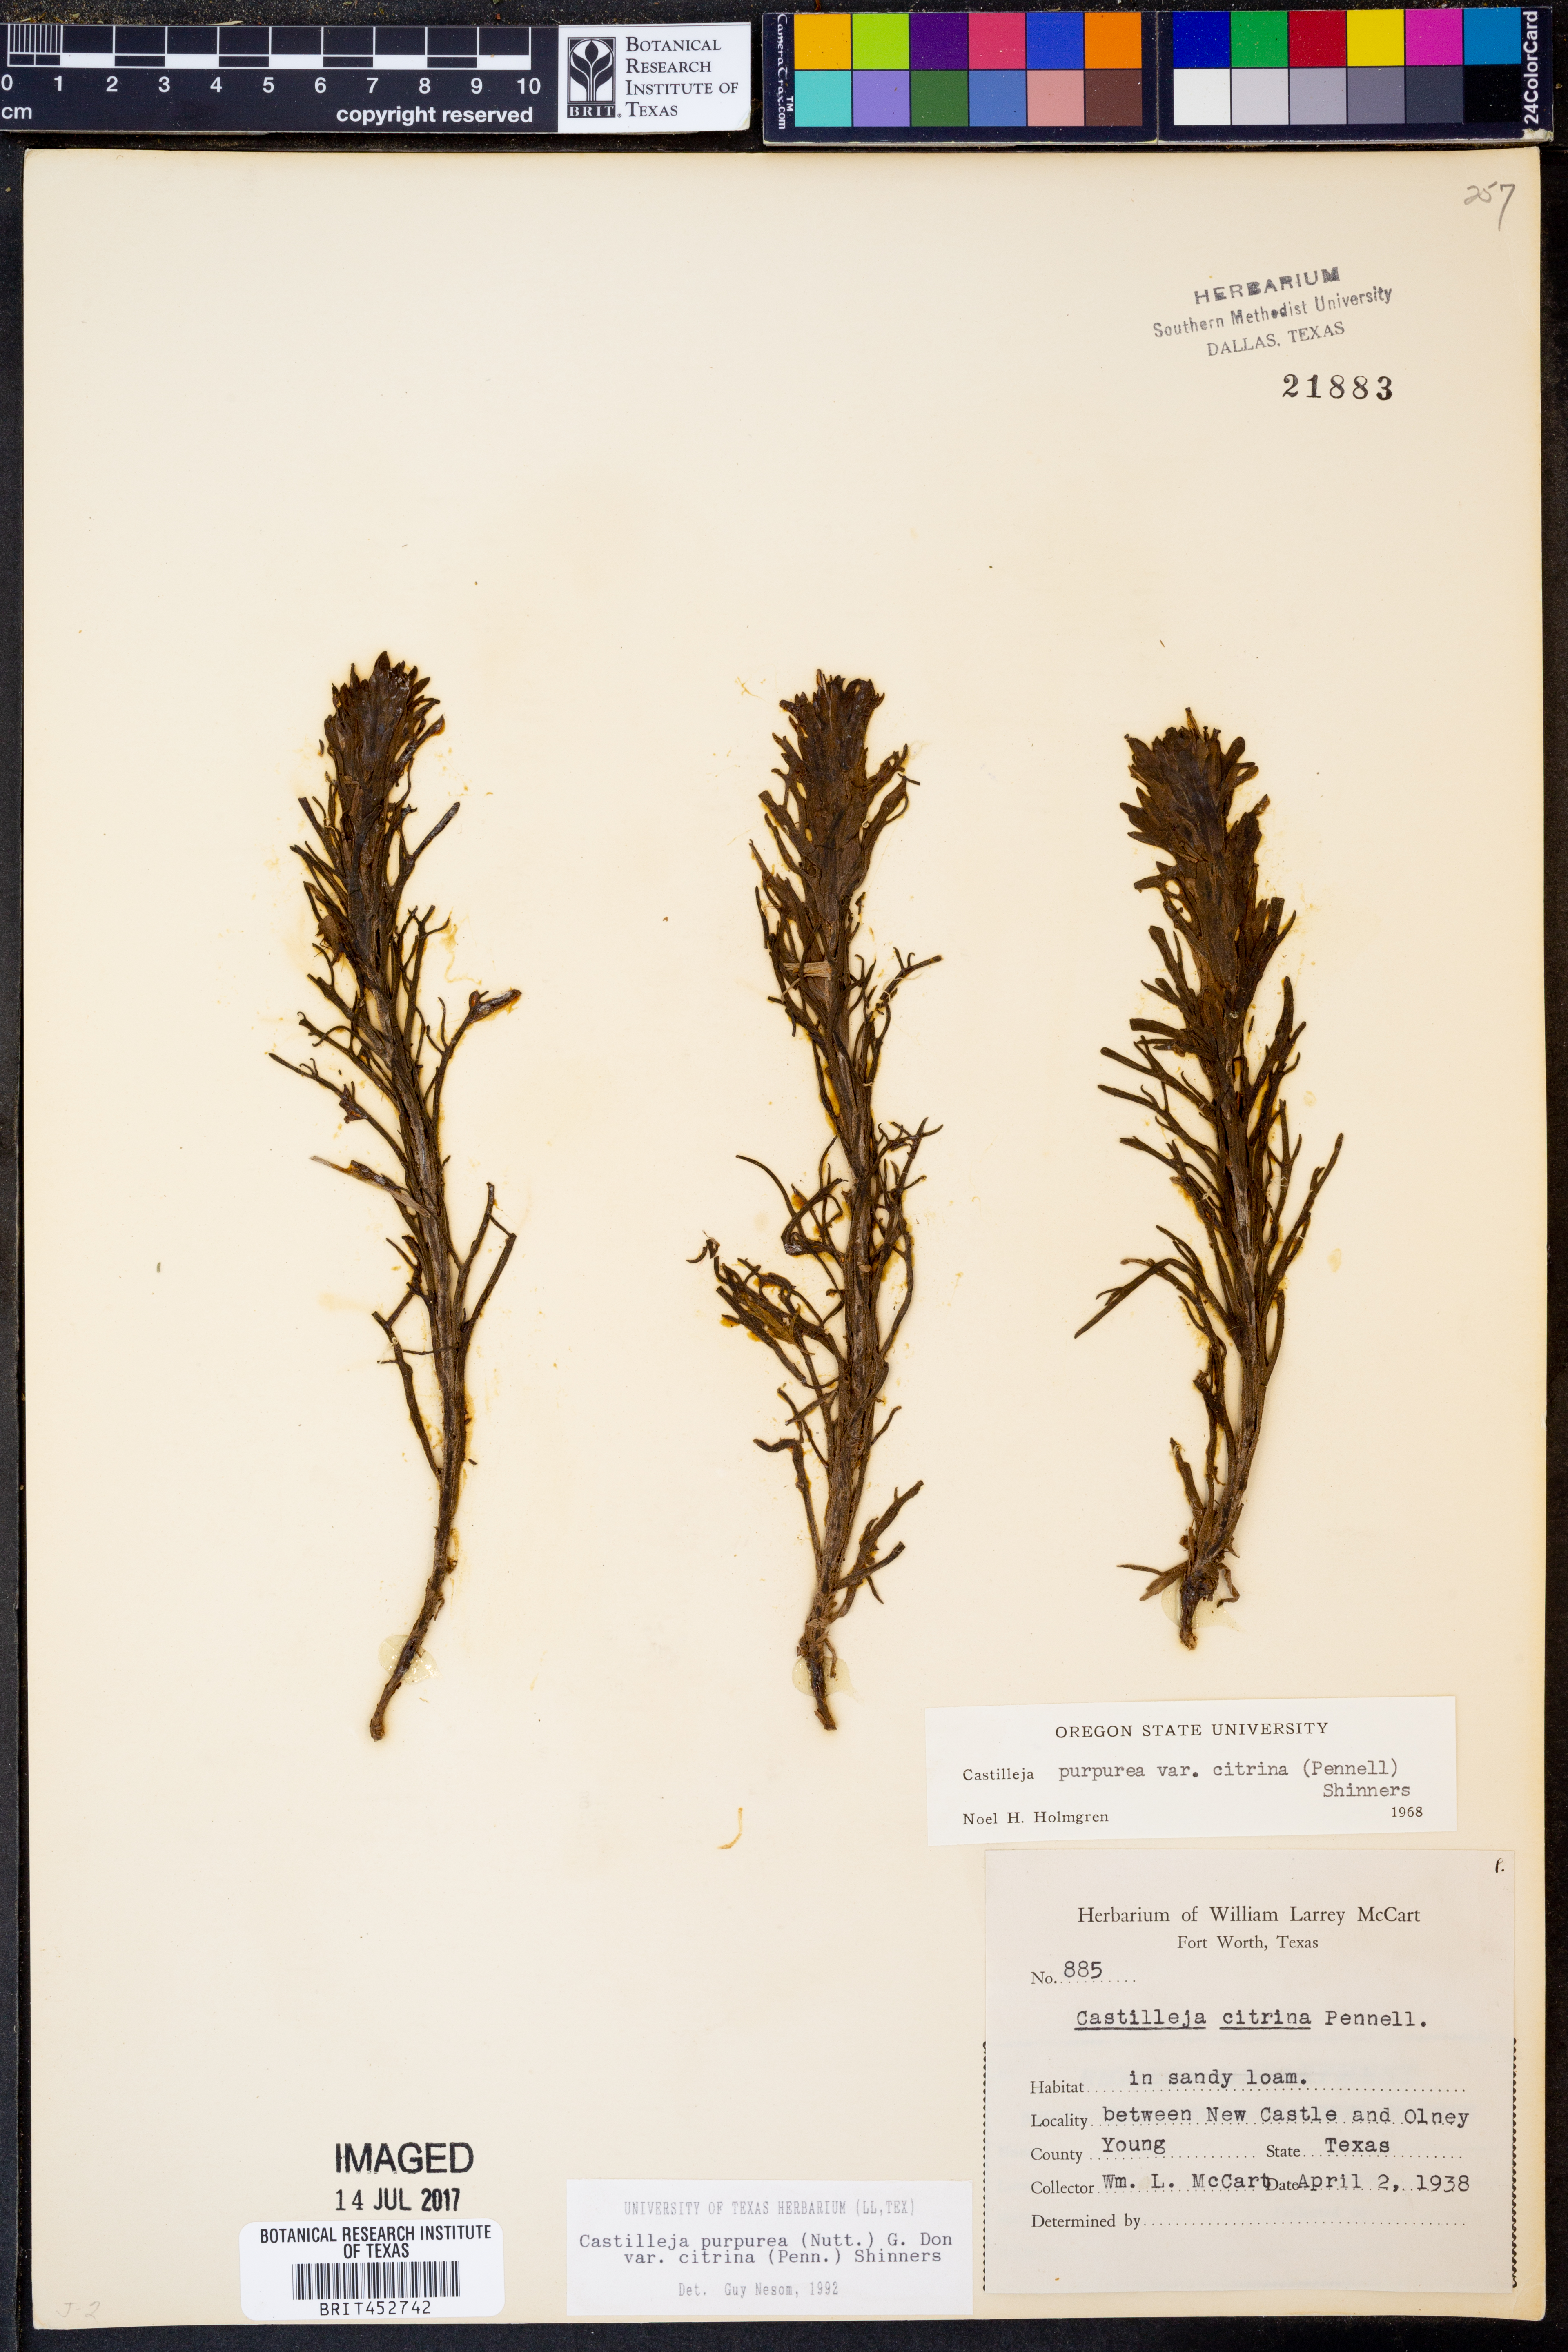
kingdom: Plantae
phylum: Tracheophyta
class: Magnoliopsida
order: Lamiales
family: Orobanchaceae
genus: Castilleja
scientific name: Castilleja citrina
